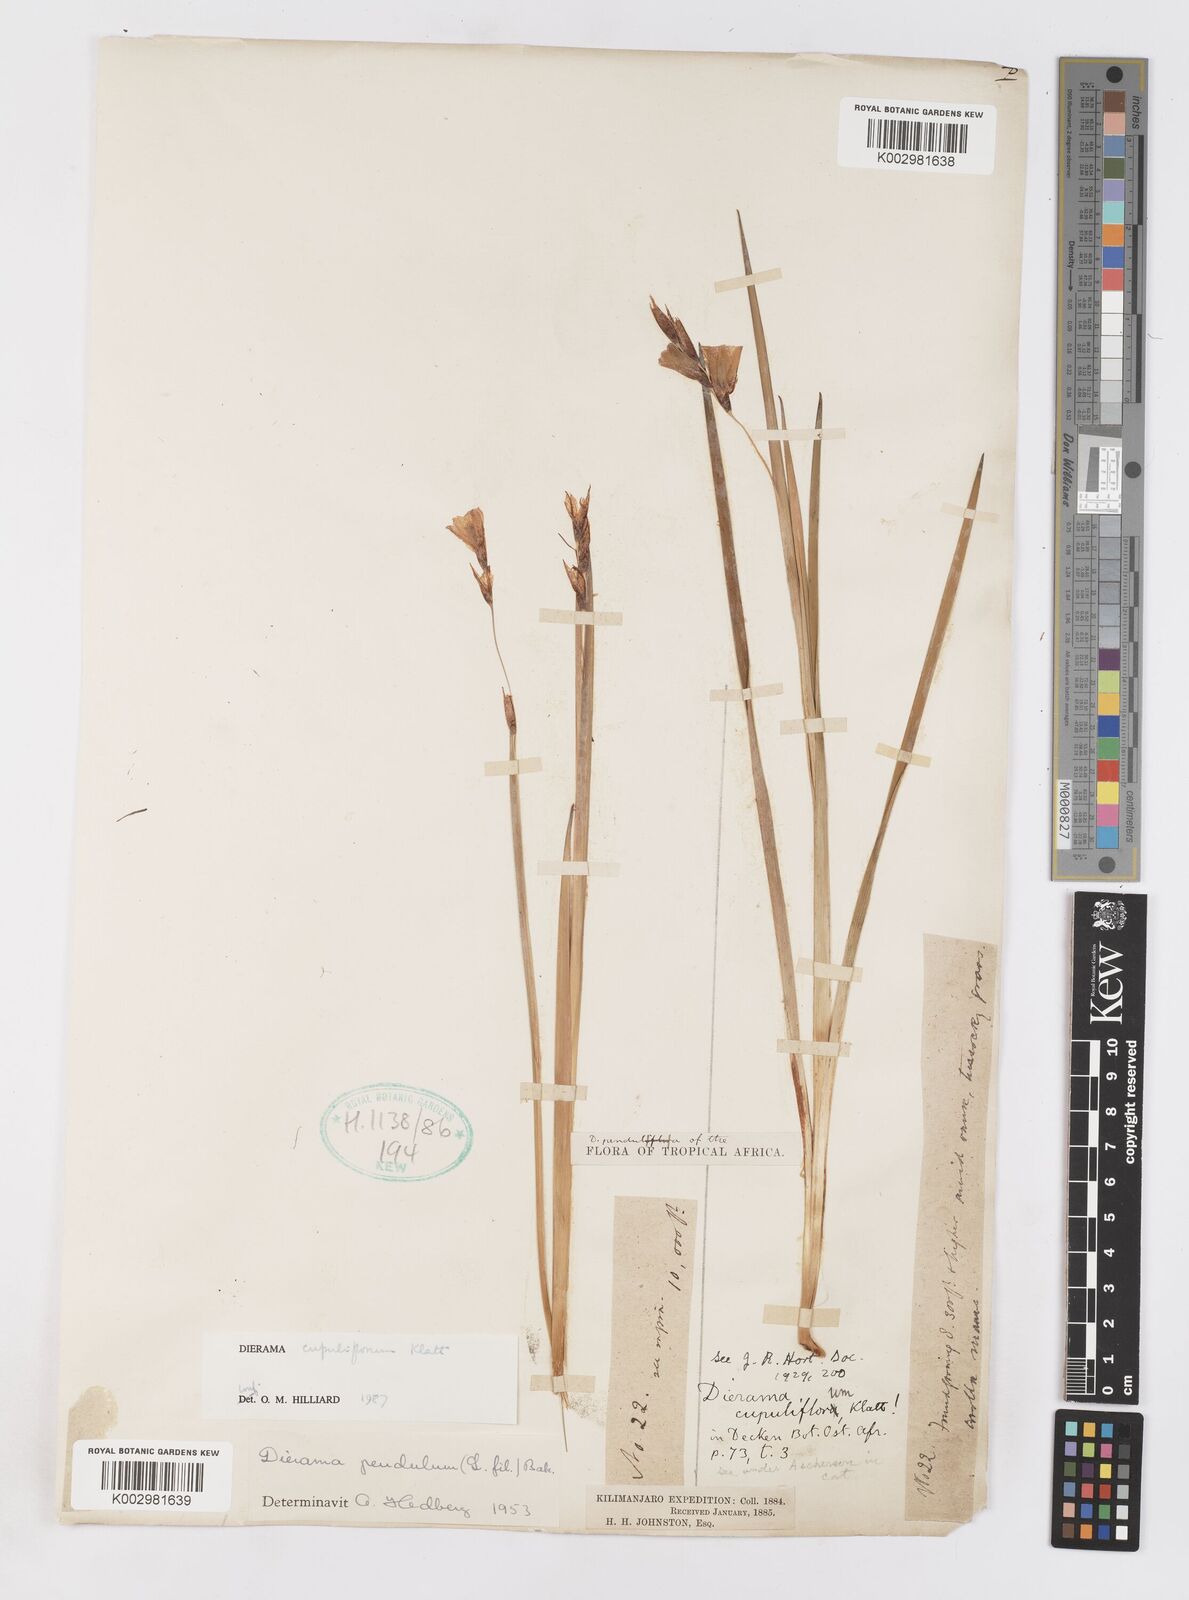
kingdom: Plantae
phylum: Tracheophyta
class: Liliopsida
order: Asparagales
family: Iridaceae
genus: Dierama
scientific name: Dierama cupuliflorum
